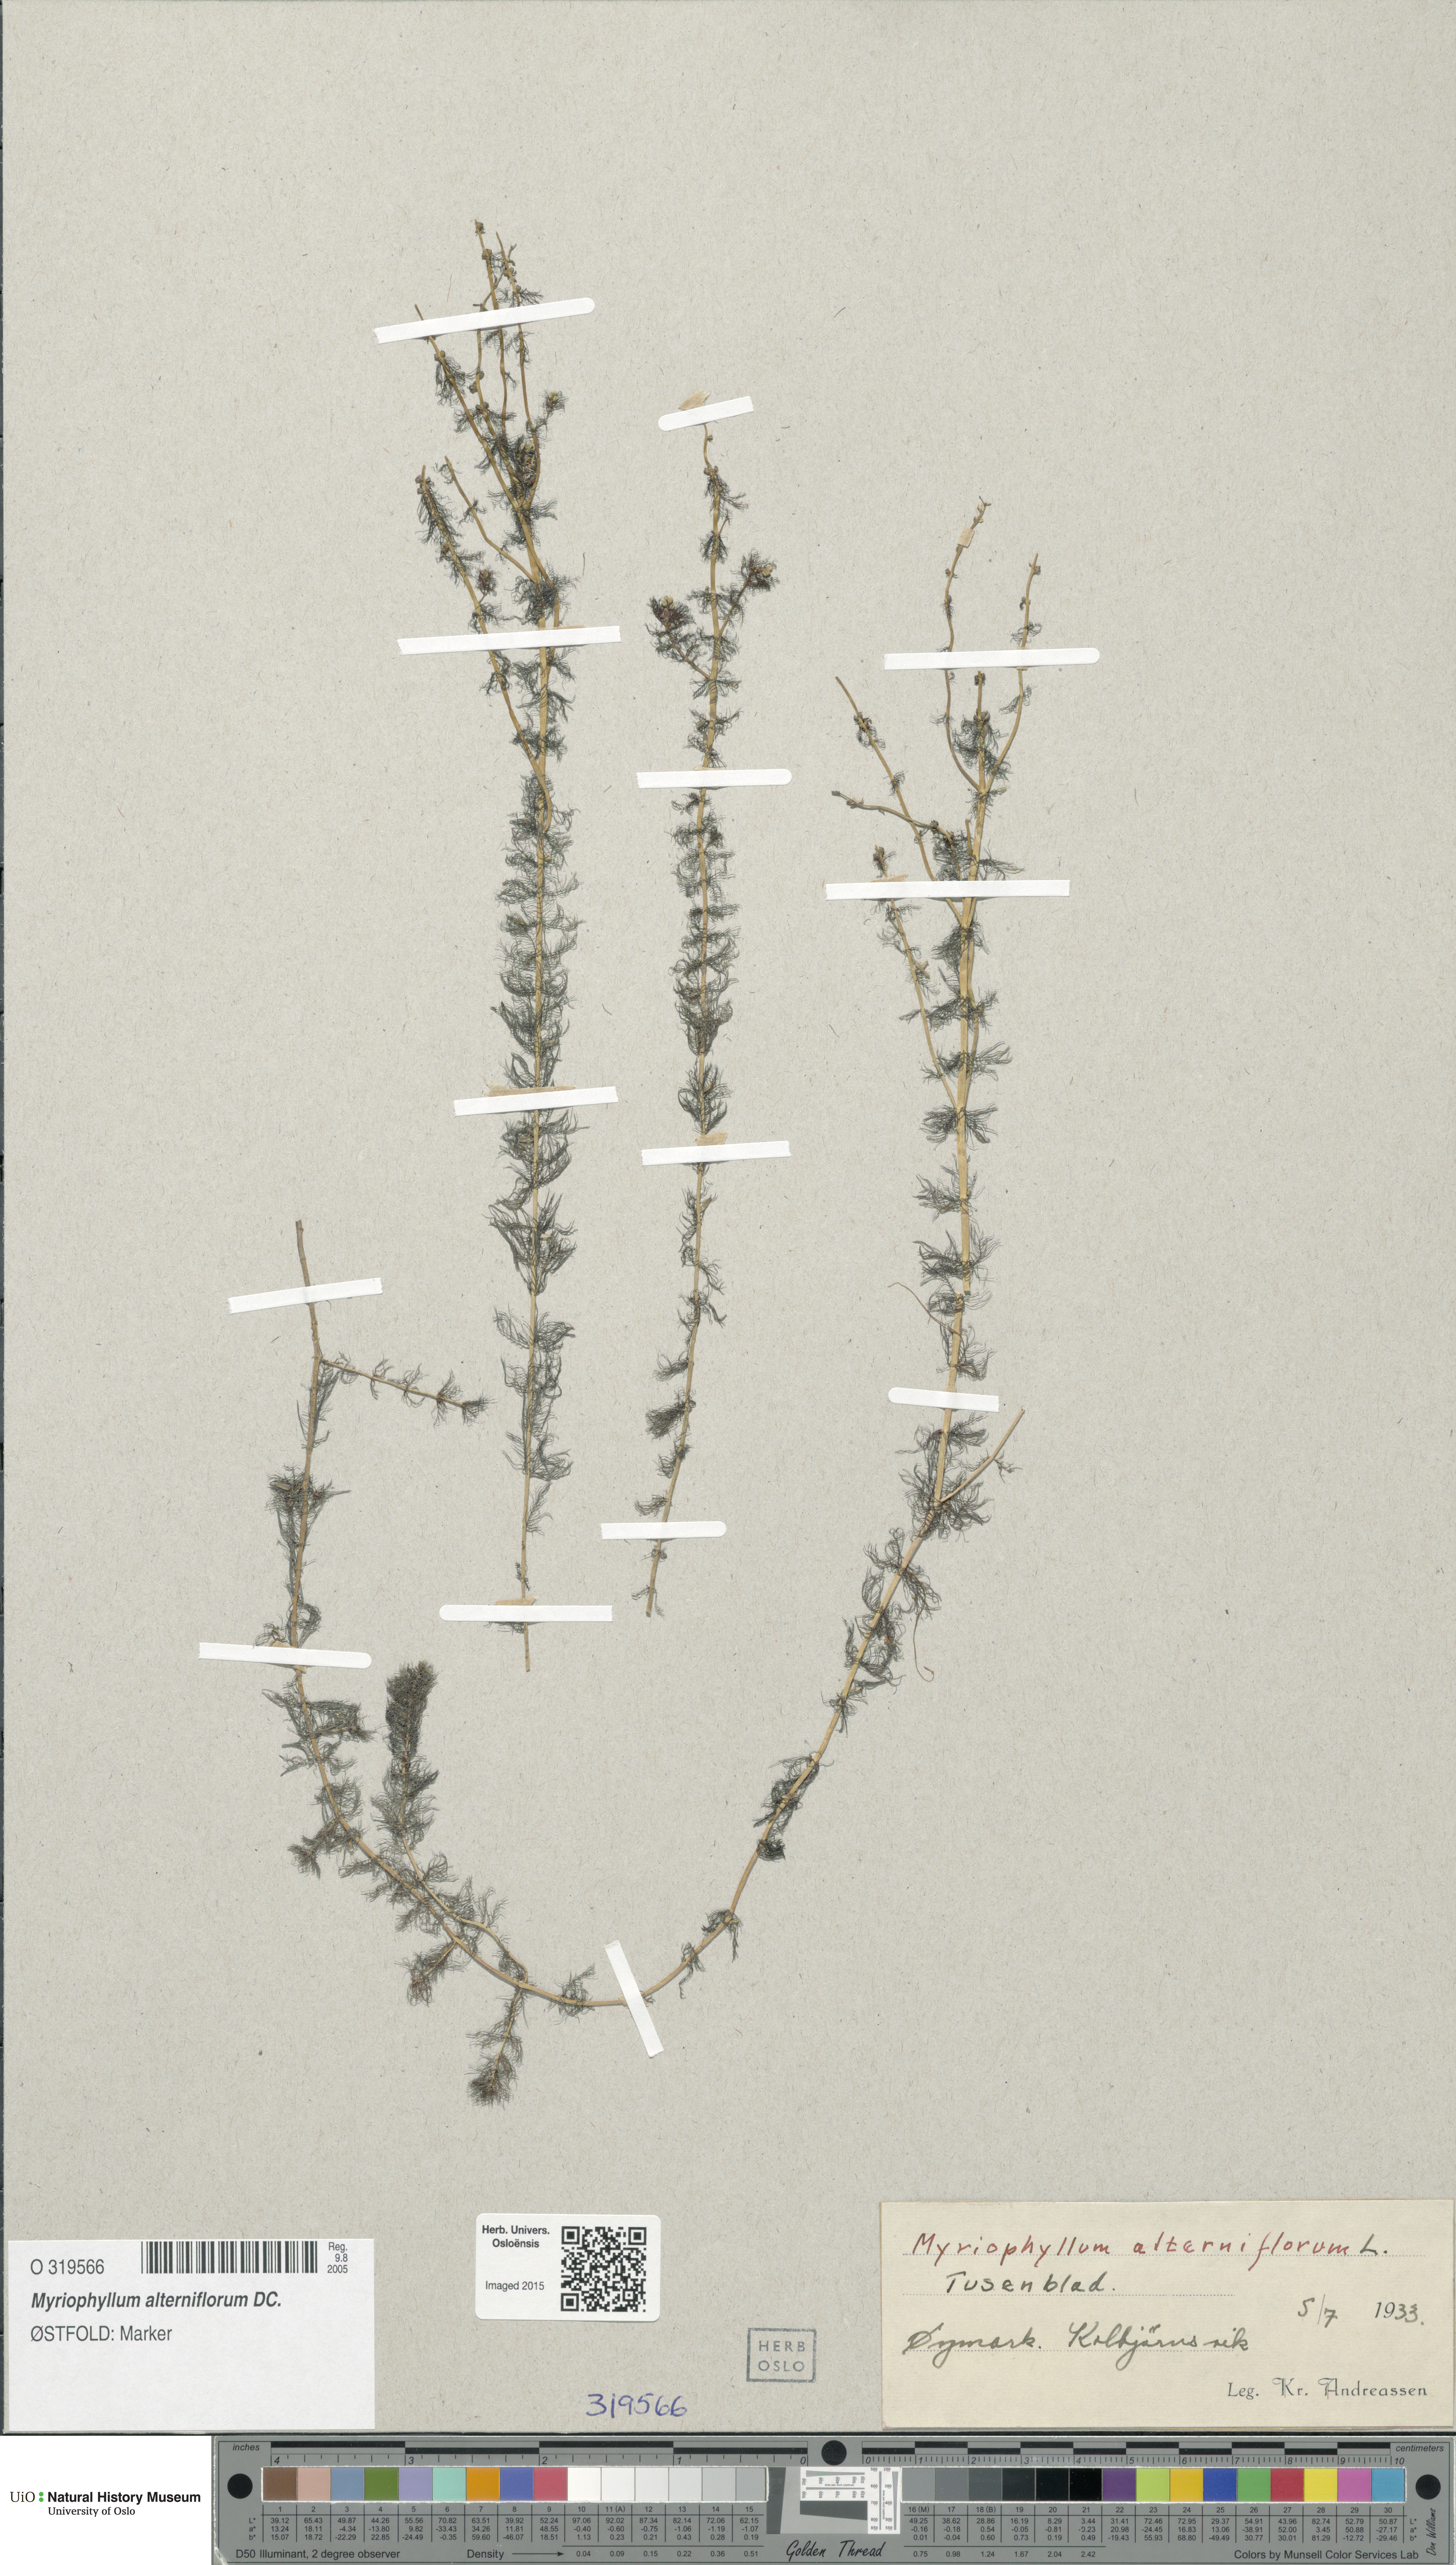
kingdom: Plantae
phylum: Tracheophyta
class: Magnoliopsida
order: Saxifragales
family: Haloragaceae
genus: Myriophyllum
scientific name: Myriophyllum alterniflorum
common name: Alternate water-milfoil
